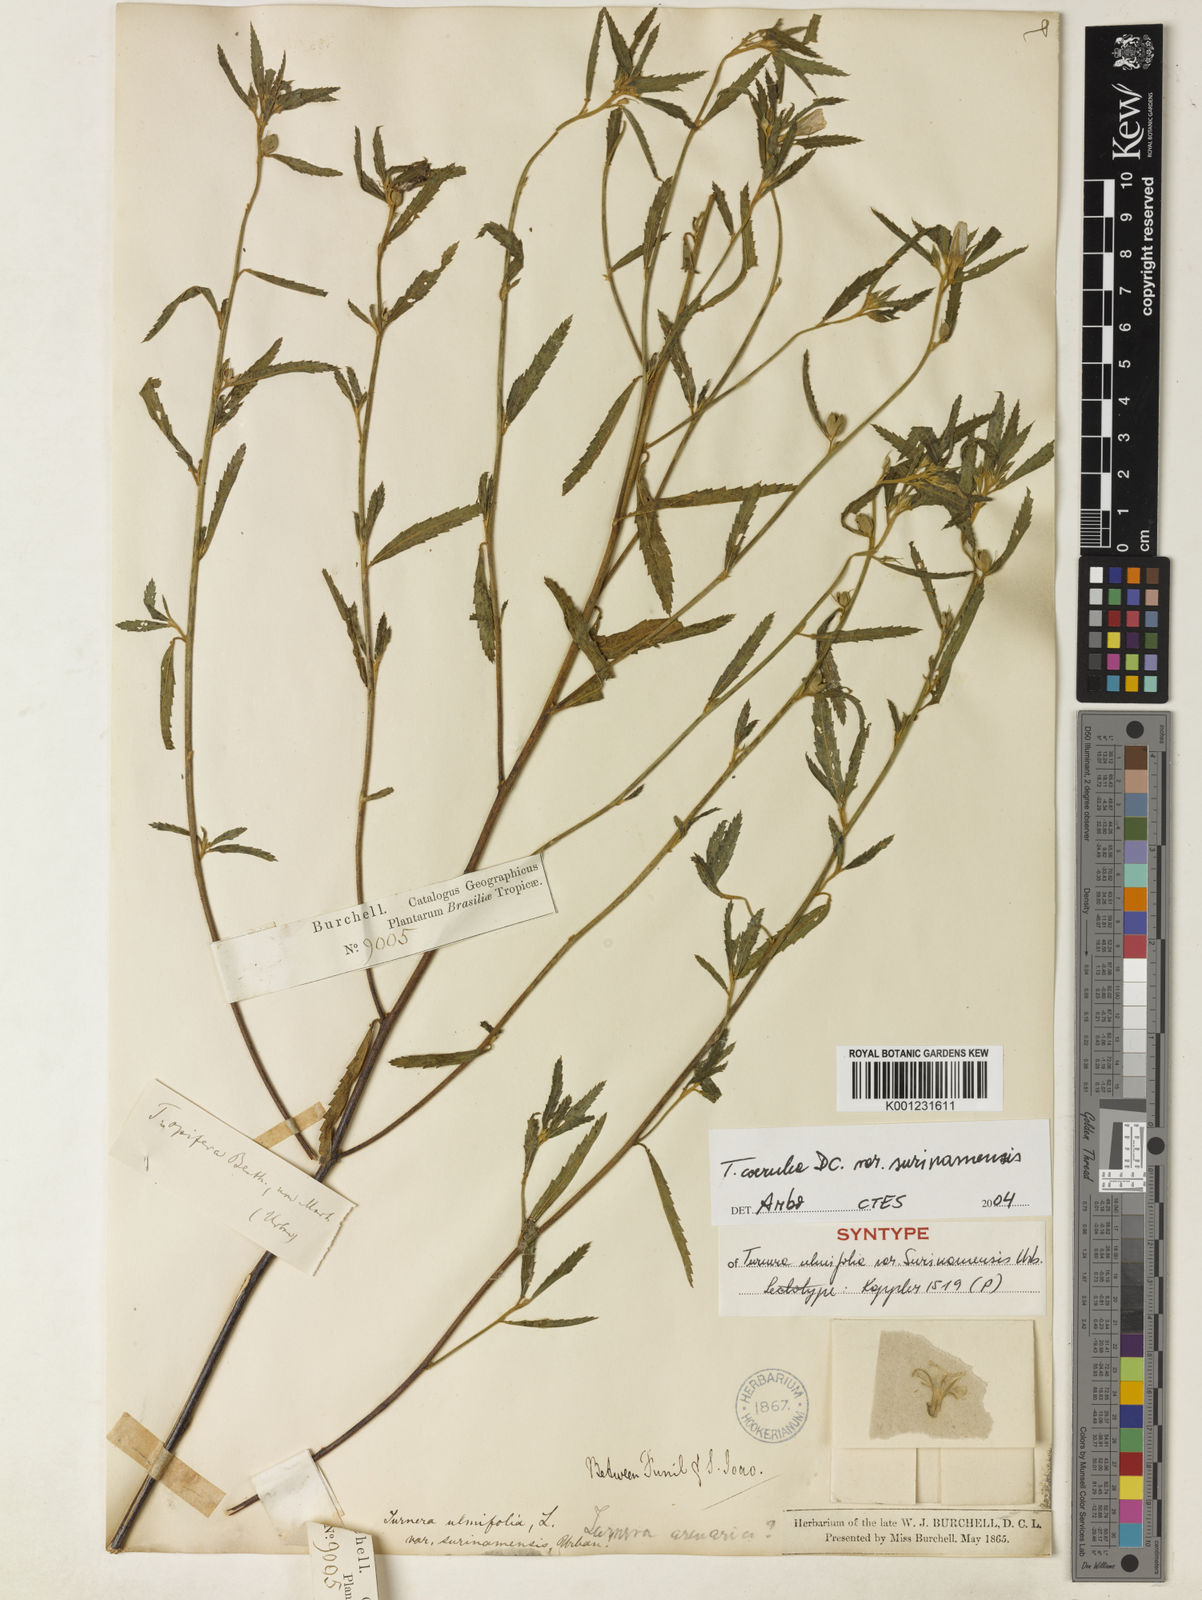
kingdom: Plantae
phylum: Tracheophyta
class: Magnoliopsida
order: Malpighiales
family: Turneraceae
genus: Turnera
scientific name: Turnera coerulea
